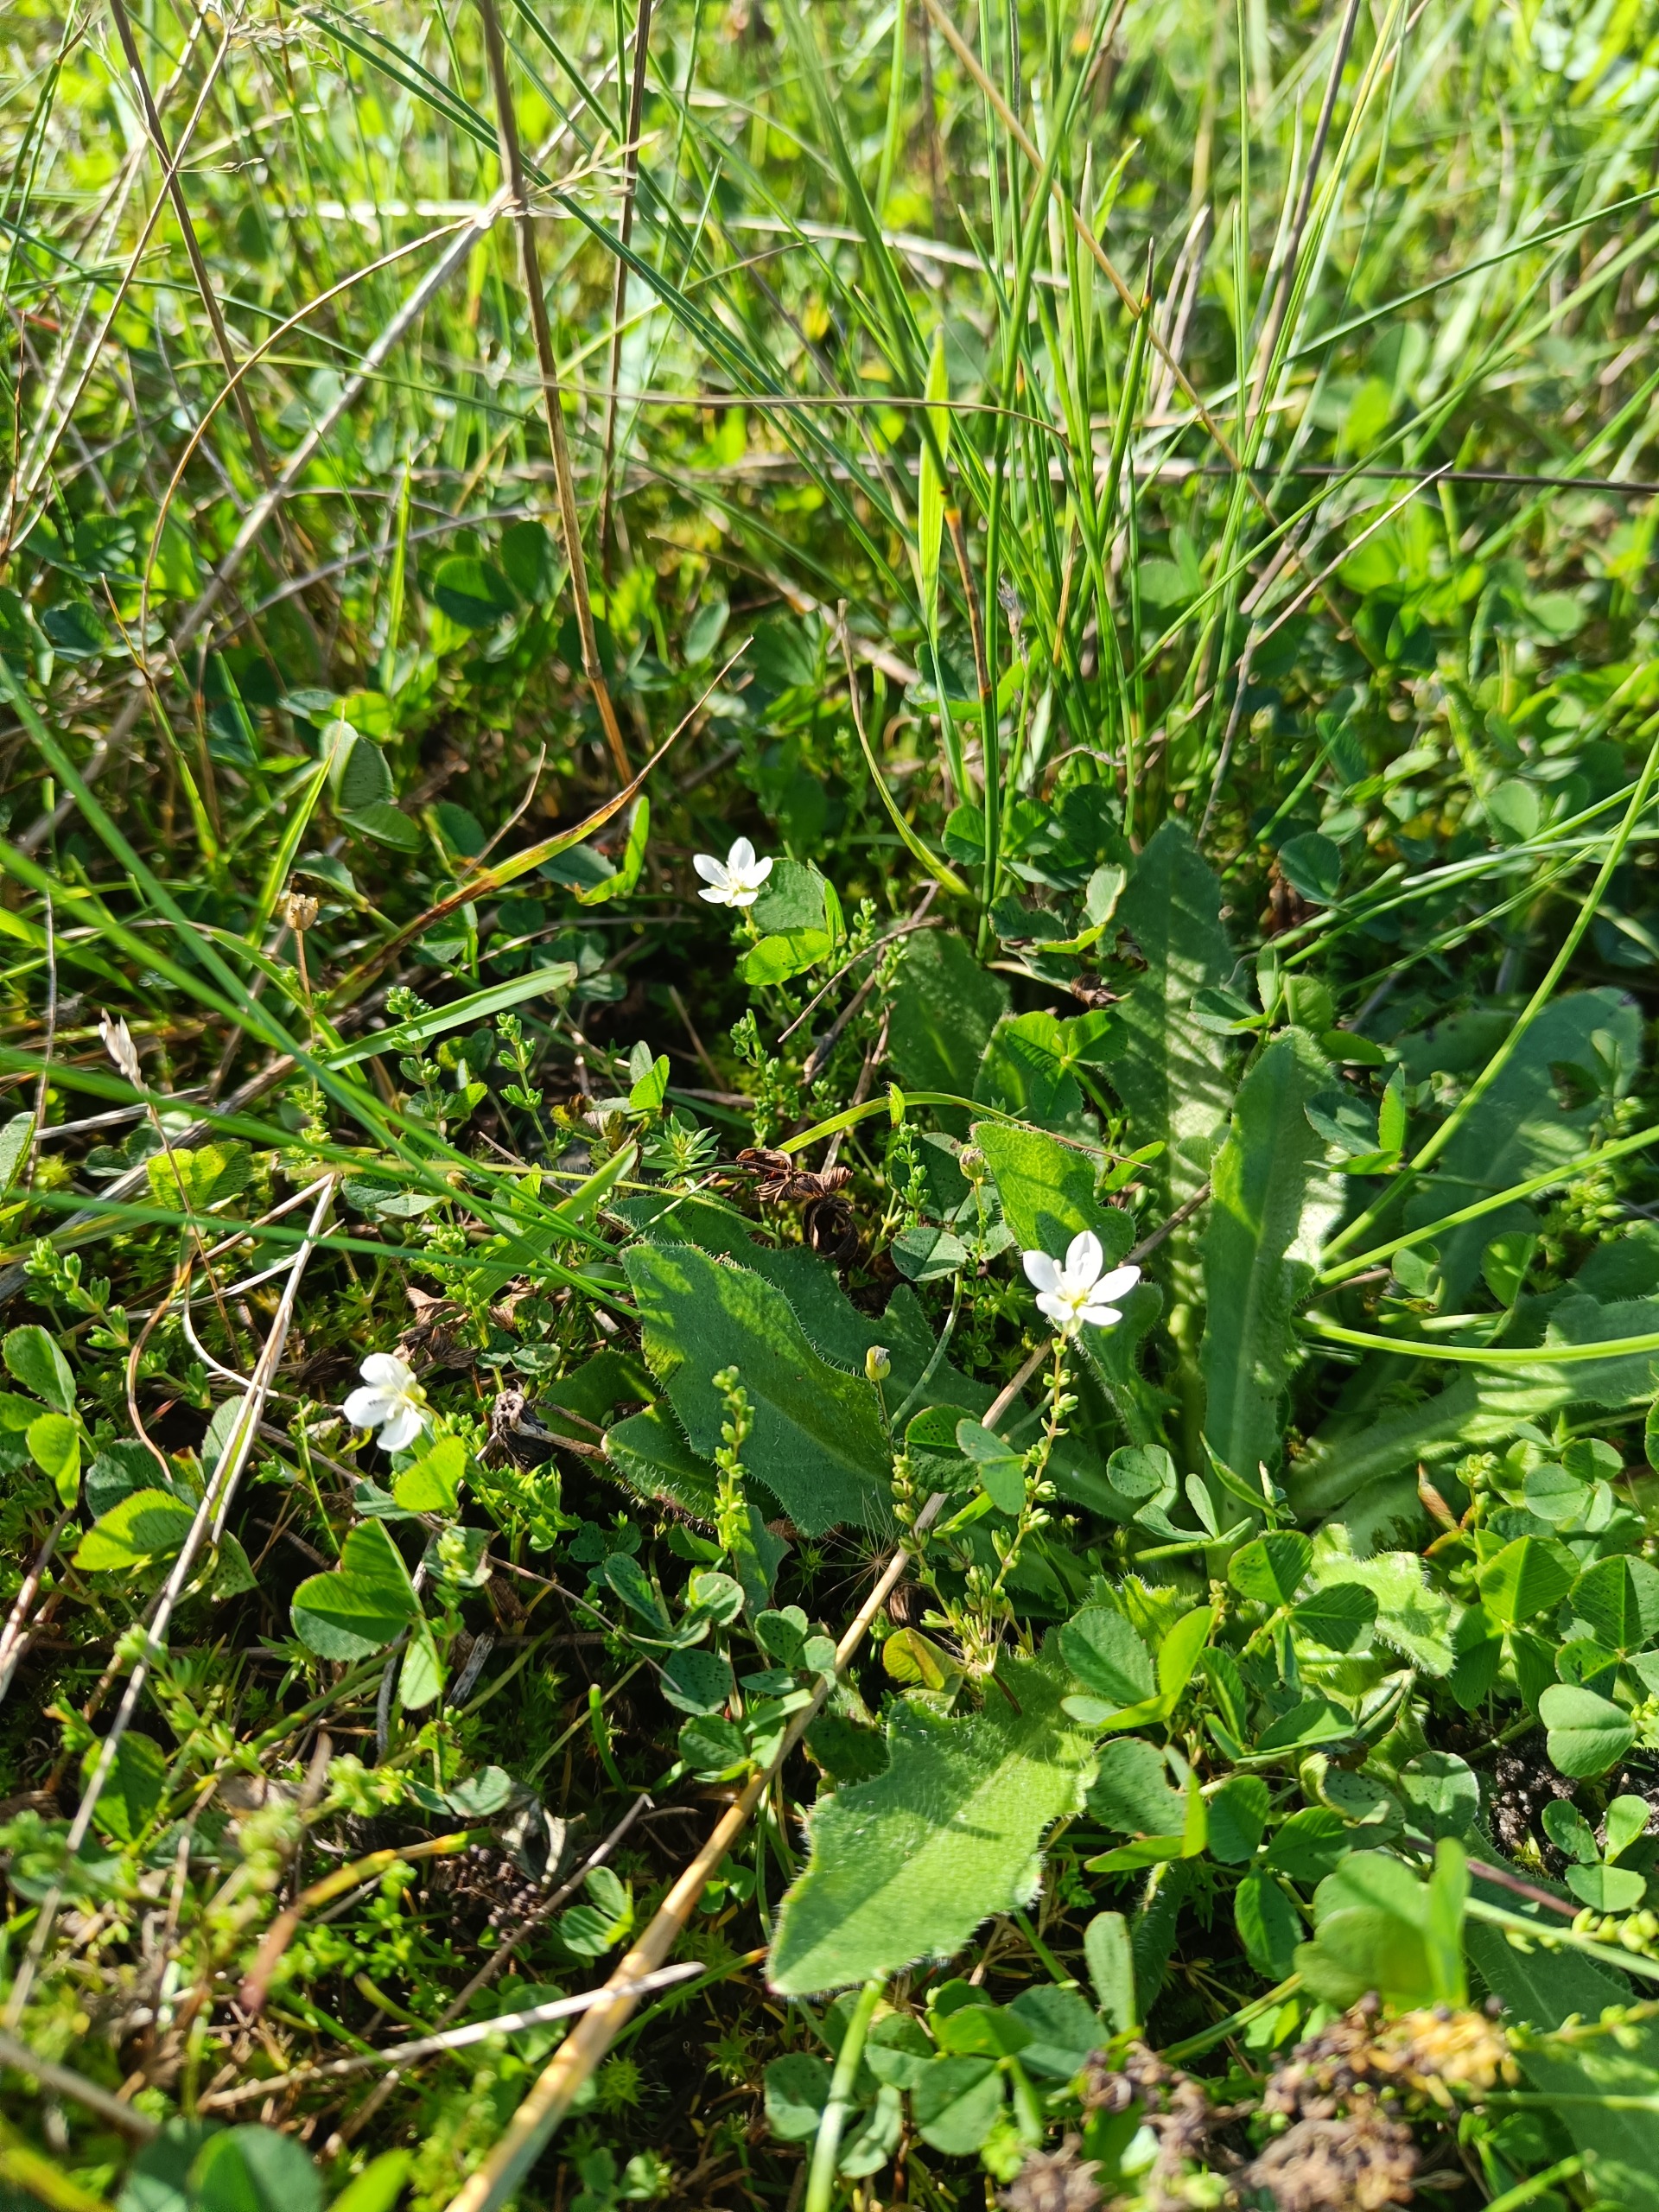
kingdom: Plantae
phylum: Tracheophyta
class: Magnoliopsida
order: Caryophyllales
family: Caryophyllaceae
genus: Sagina
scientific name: Sagina nodosa
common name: Knude-firling
